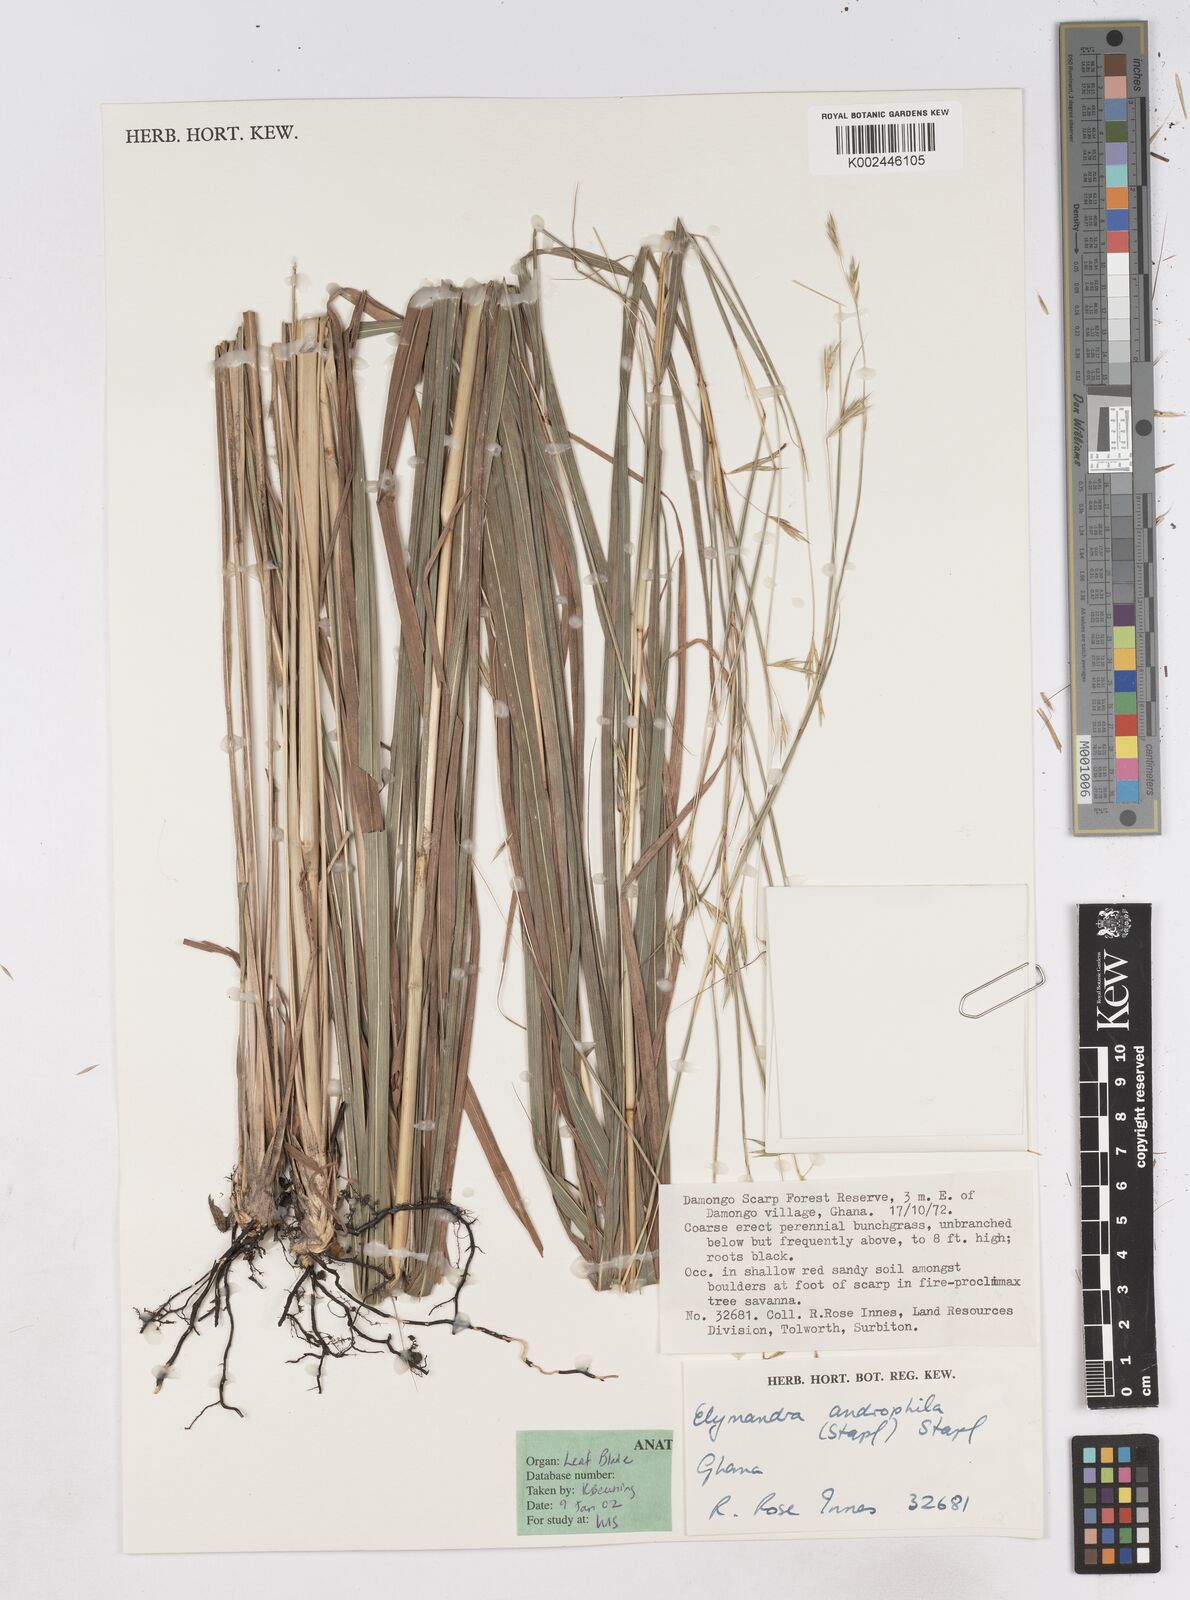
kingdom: Plantae
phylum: Tracheophyta
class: Liliopsida
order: Poales
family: Poaceae
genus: Elymandra
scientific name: Elymandra androphila
